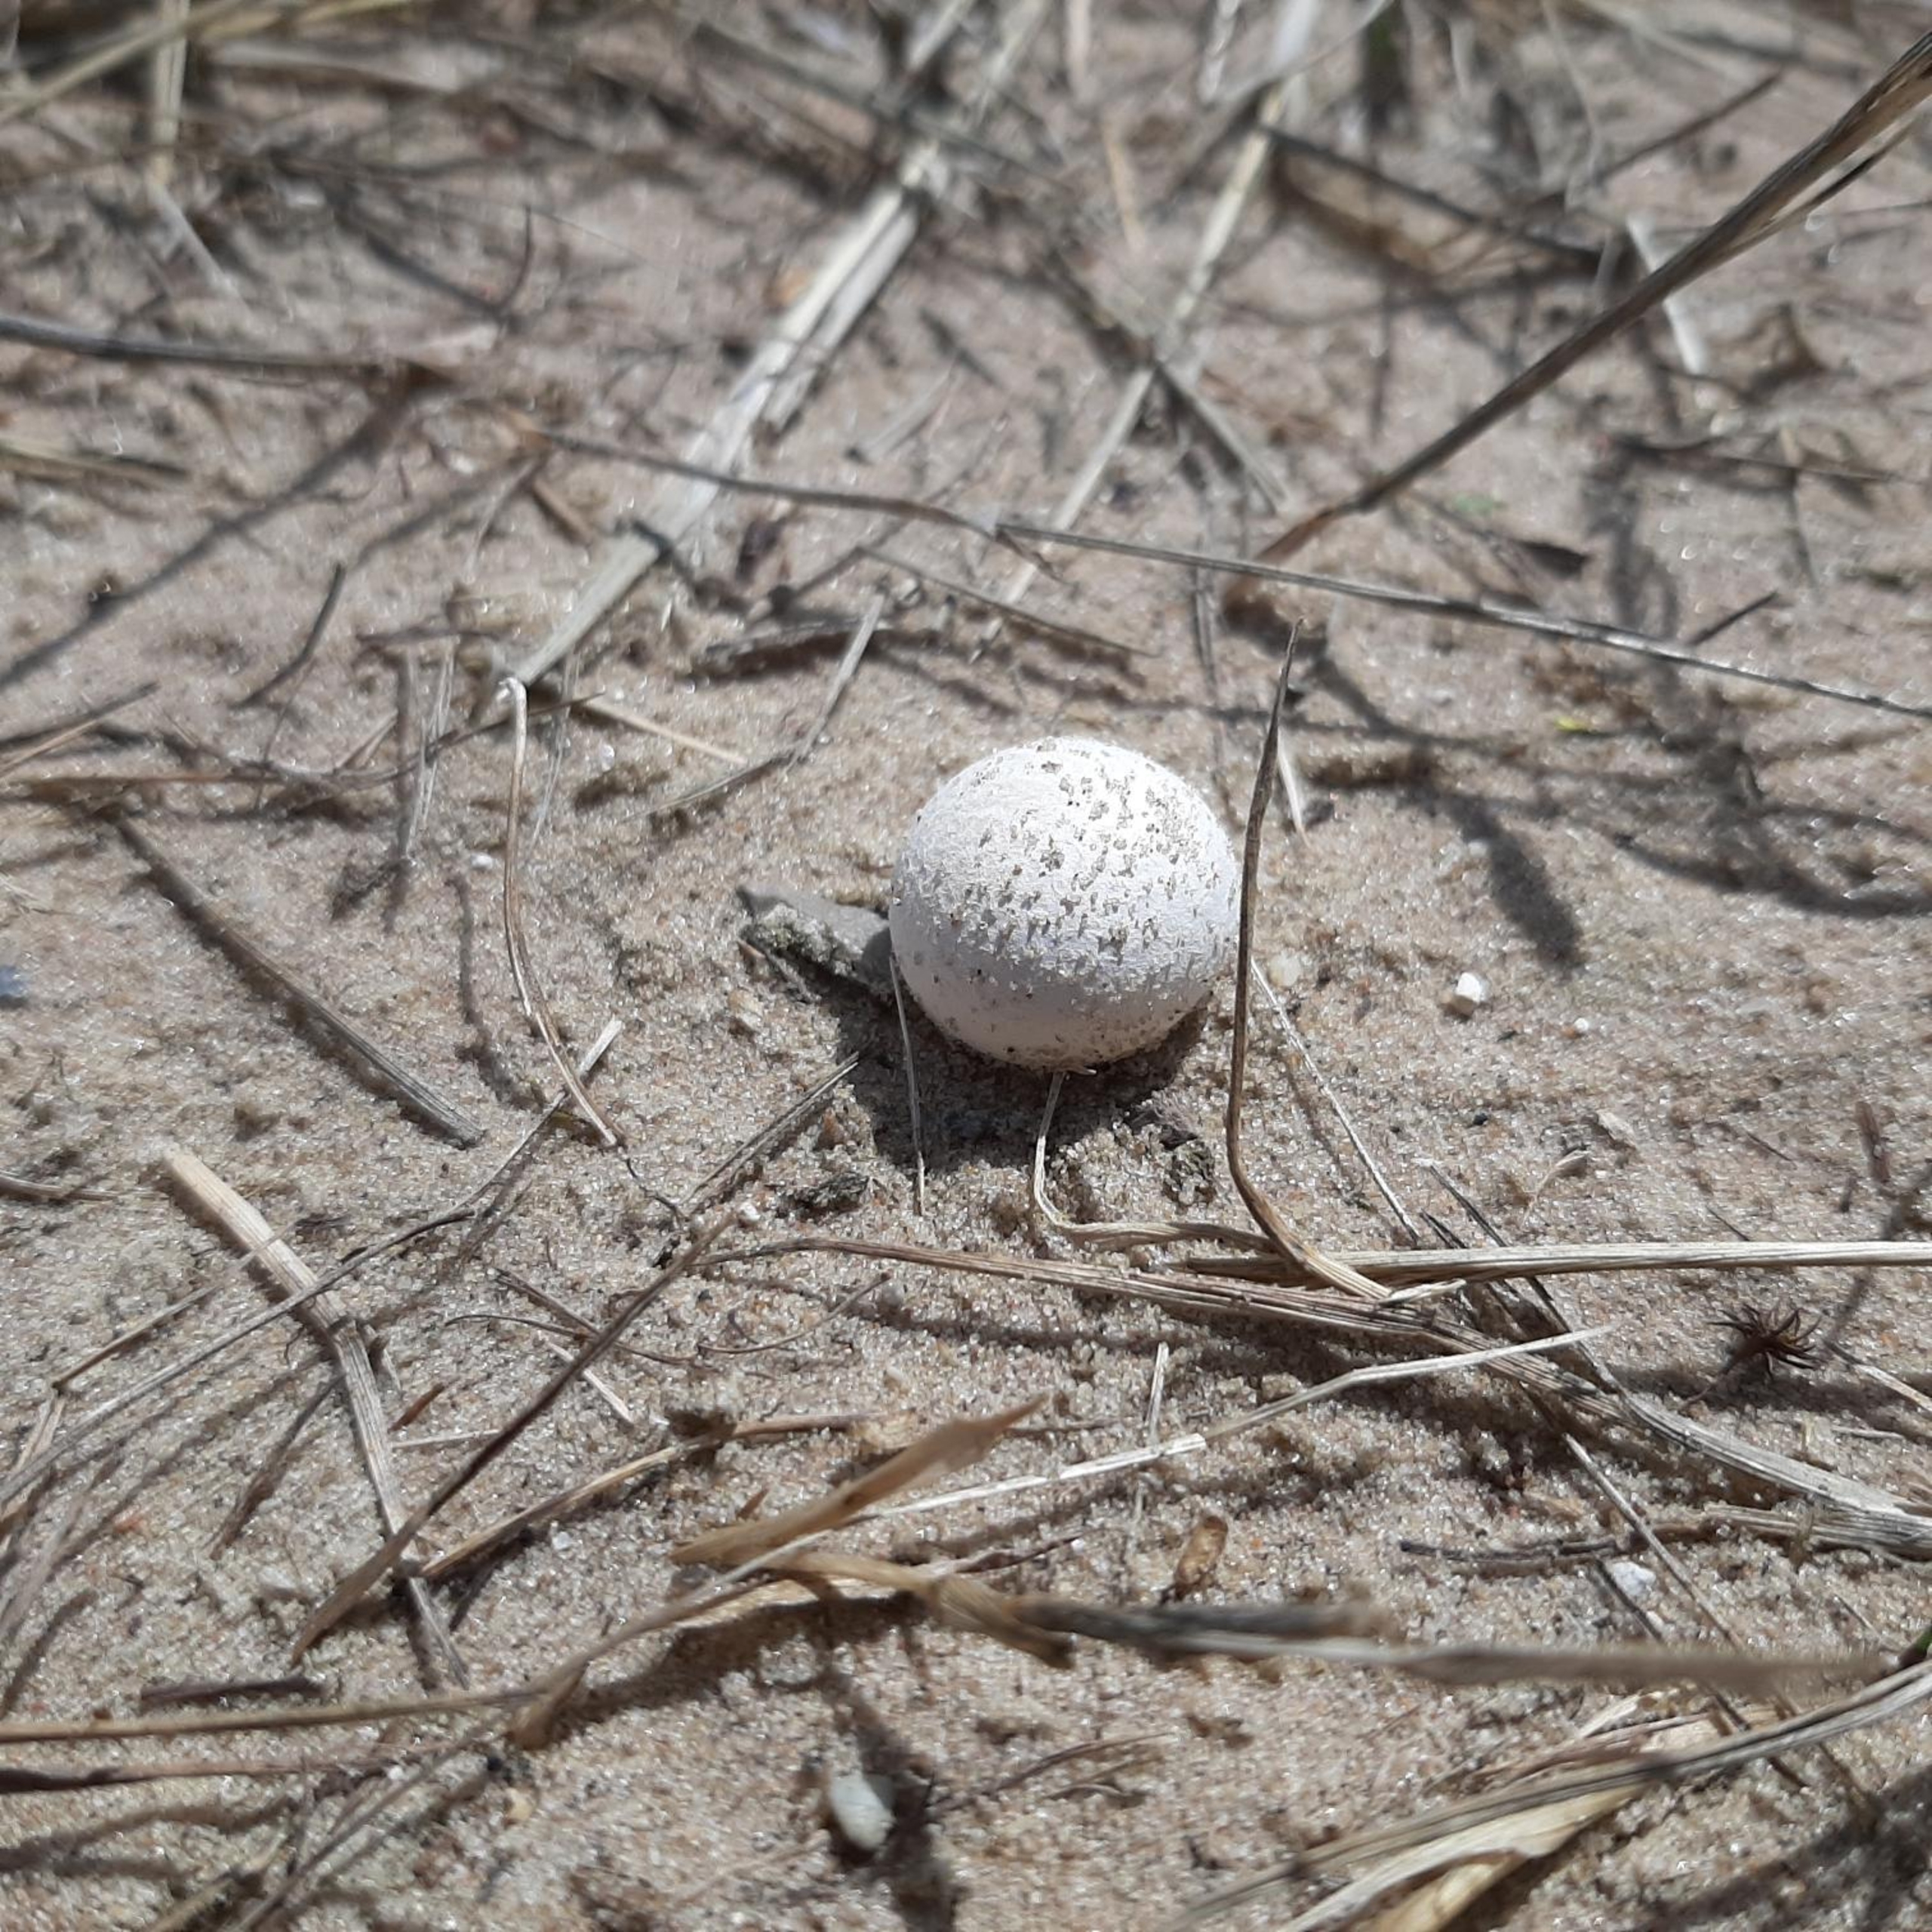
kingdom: Fungi
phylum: Basidiomycota
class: Agaricomycetes
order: Agaricales
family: Lycoperdaceae
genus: Bovista
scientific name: Bovista
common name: Bovist
